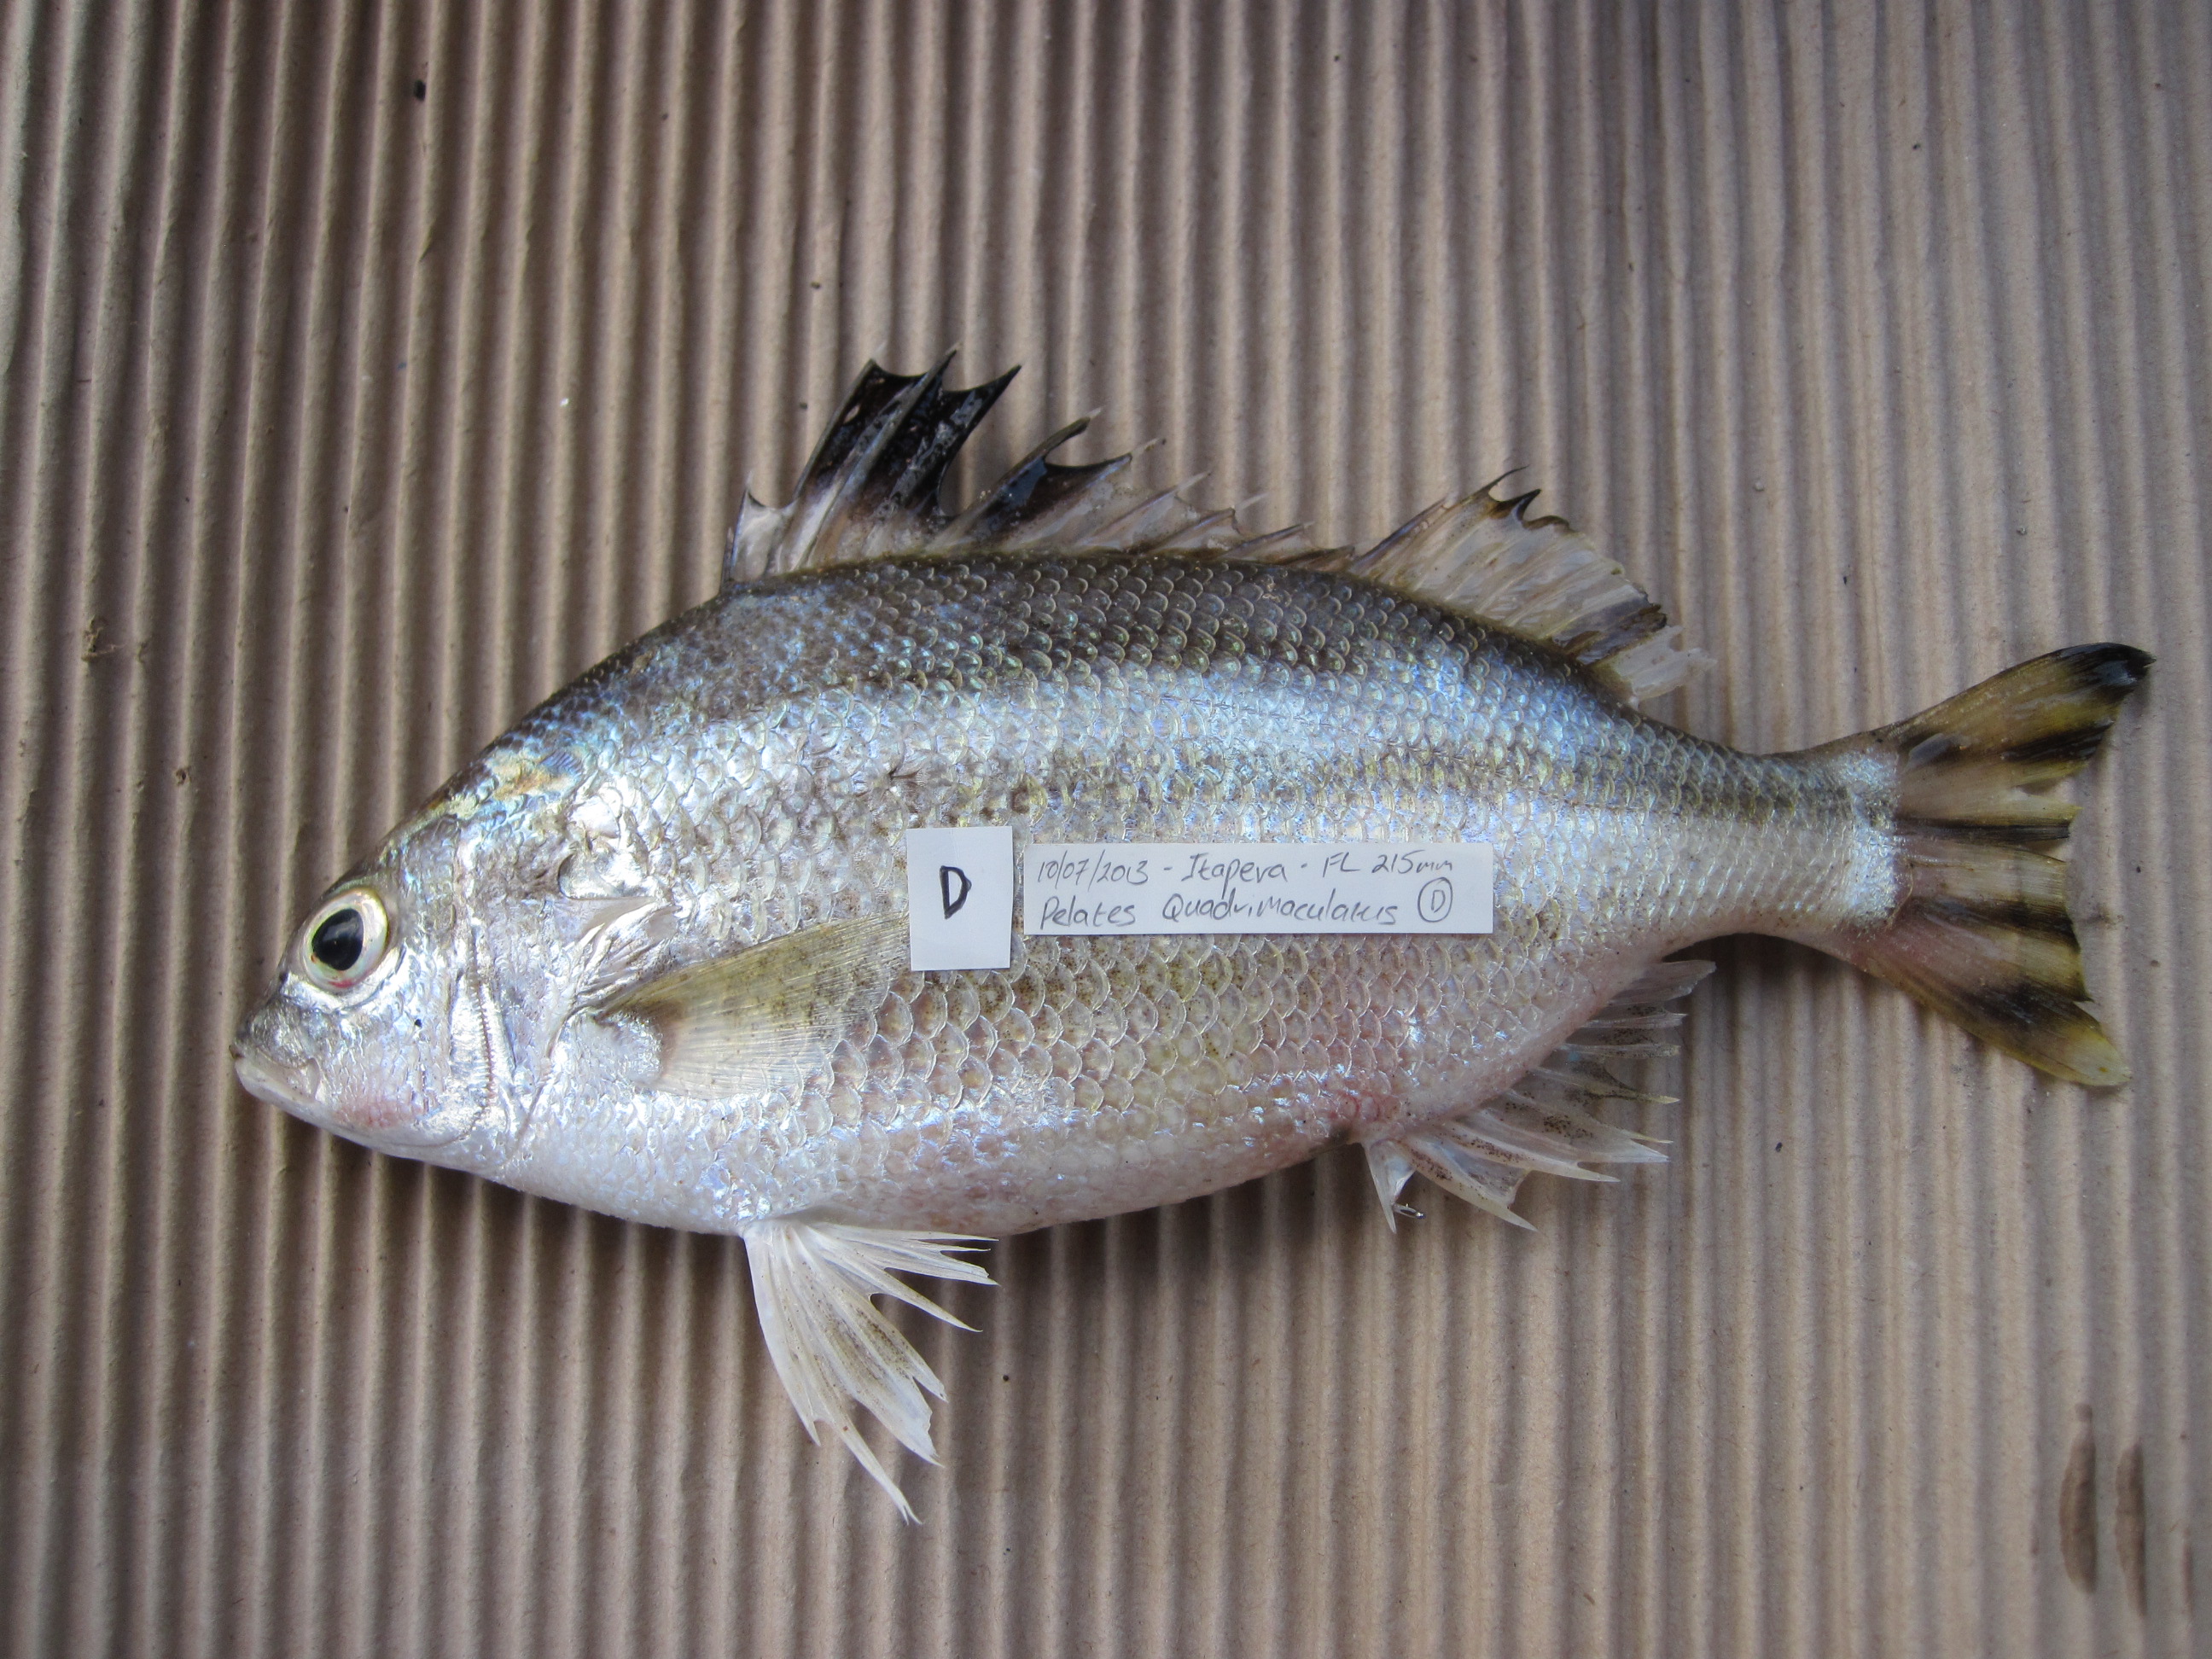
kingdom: Animalia
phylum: Chordata
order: Perciformes
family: Terapontidae
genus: Pelates
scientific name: Pelates quadrilineatus
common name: Fourlined terapon
